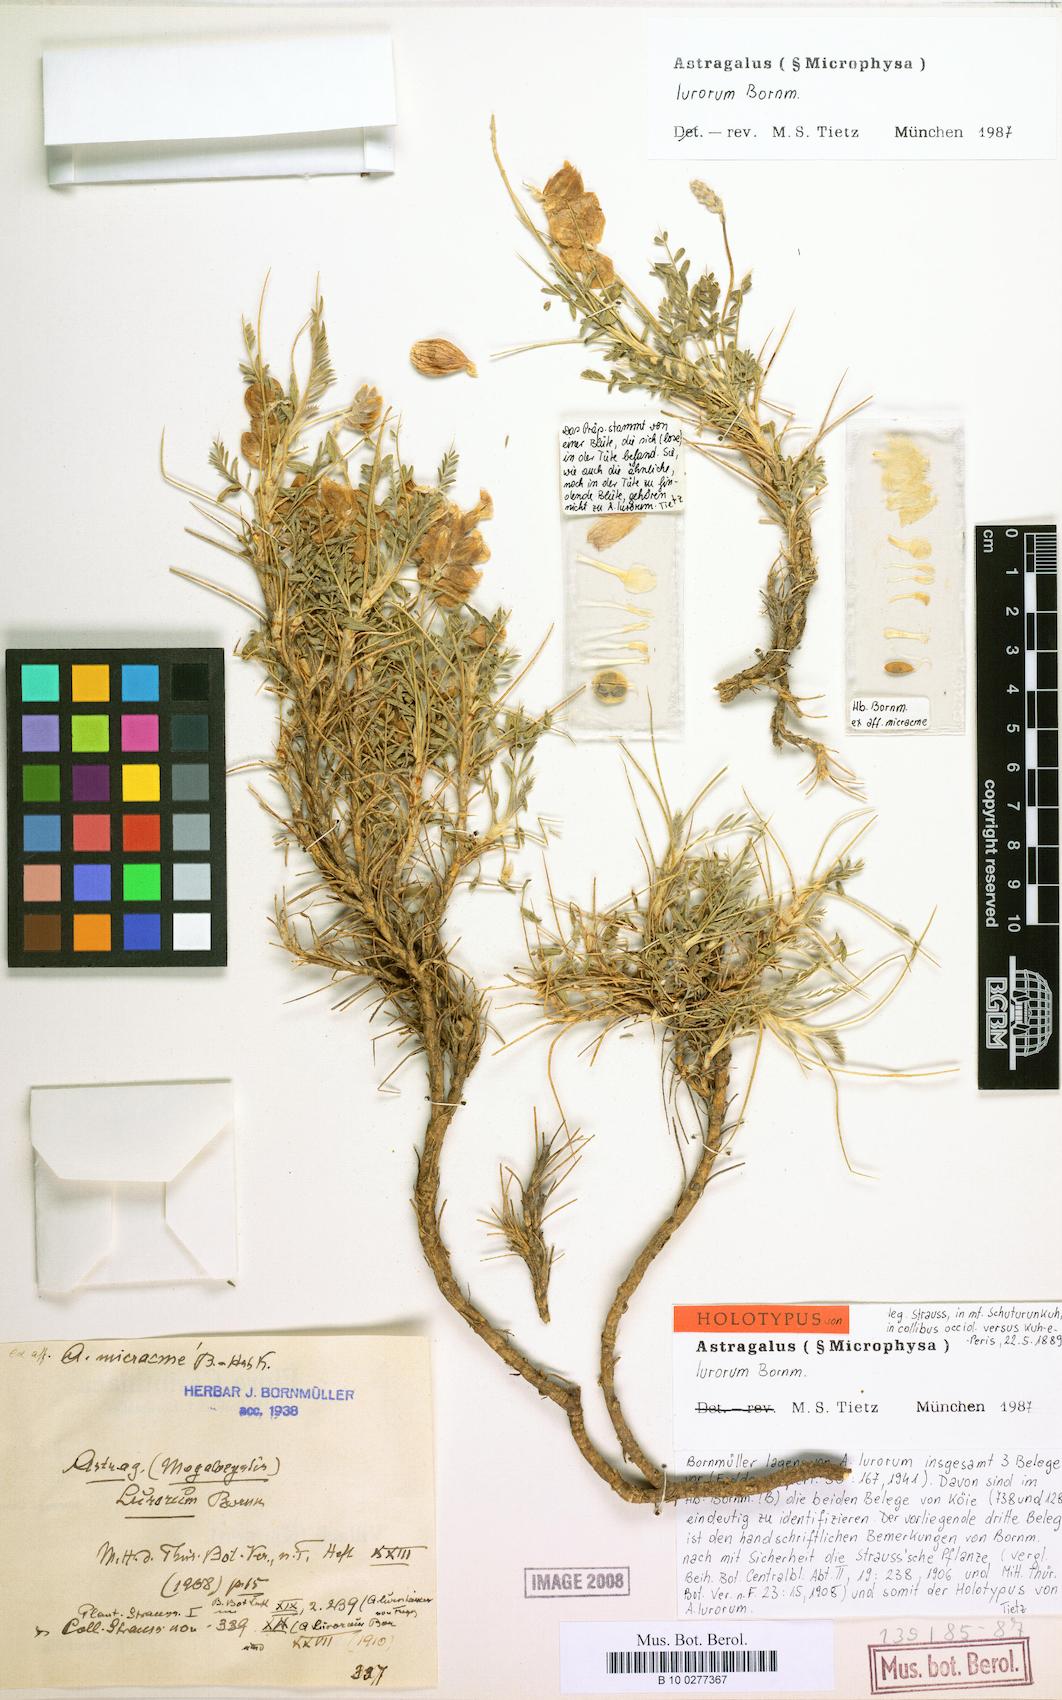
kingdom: Plantae
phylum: Tracheophyta
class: Magnoliopsida
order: Fabales
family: Fabaceae
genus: Astragalus
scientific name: Astragalus lurorum
